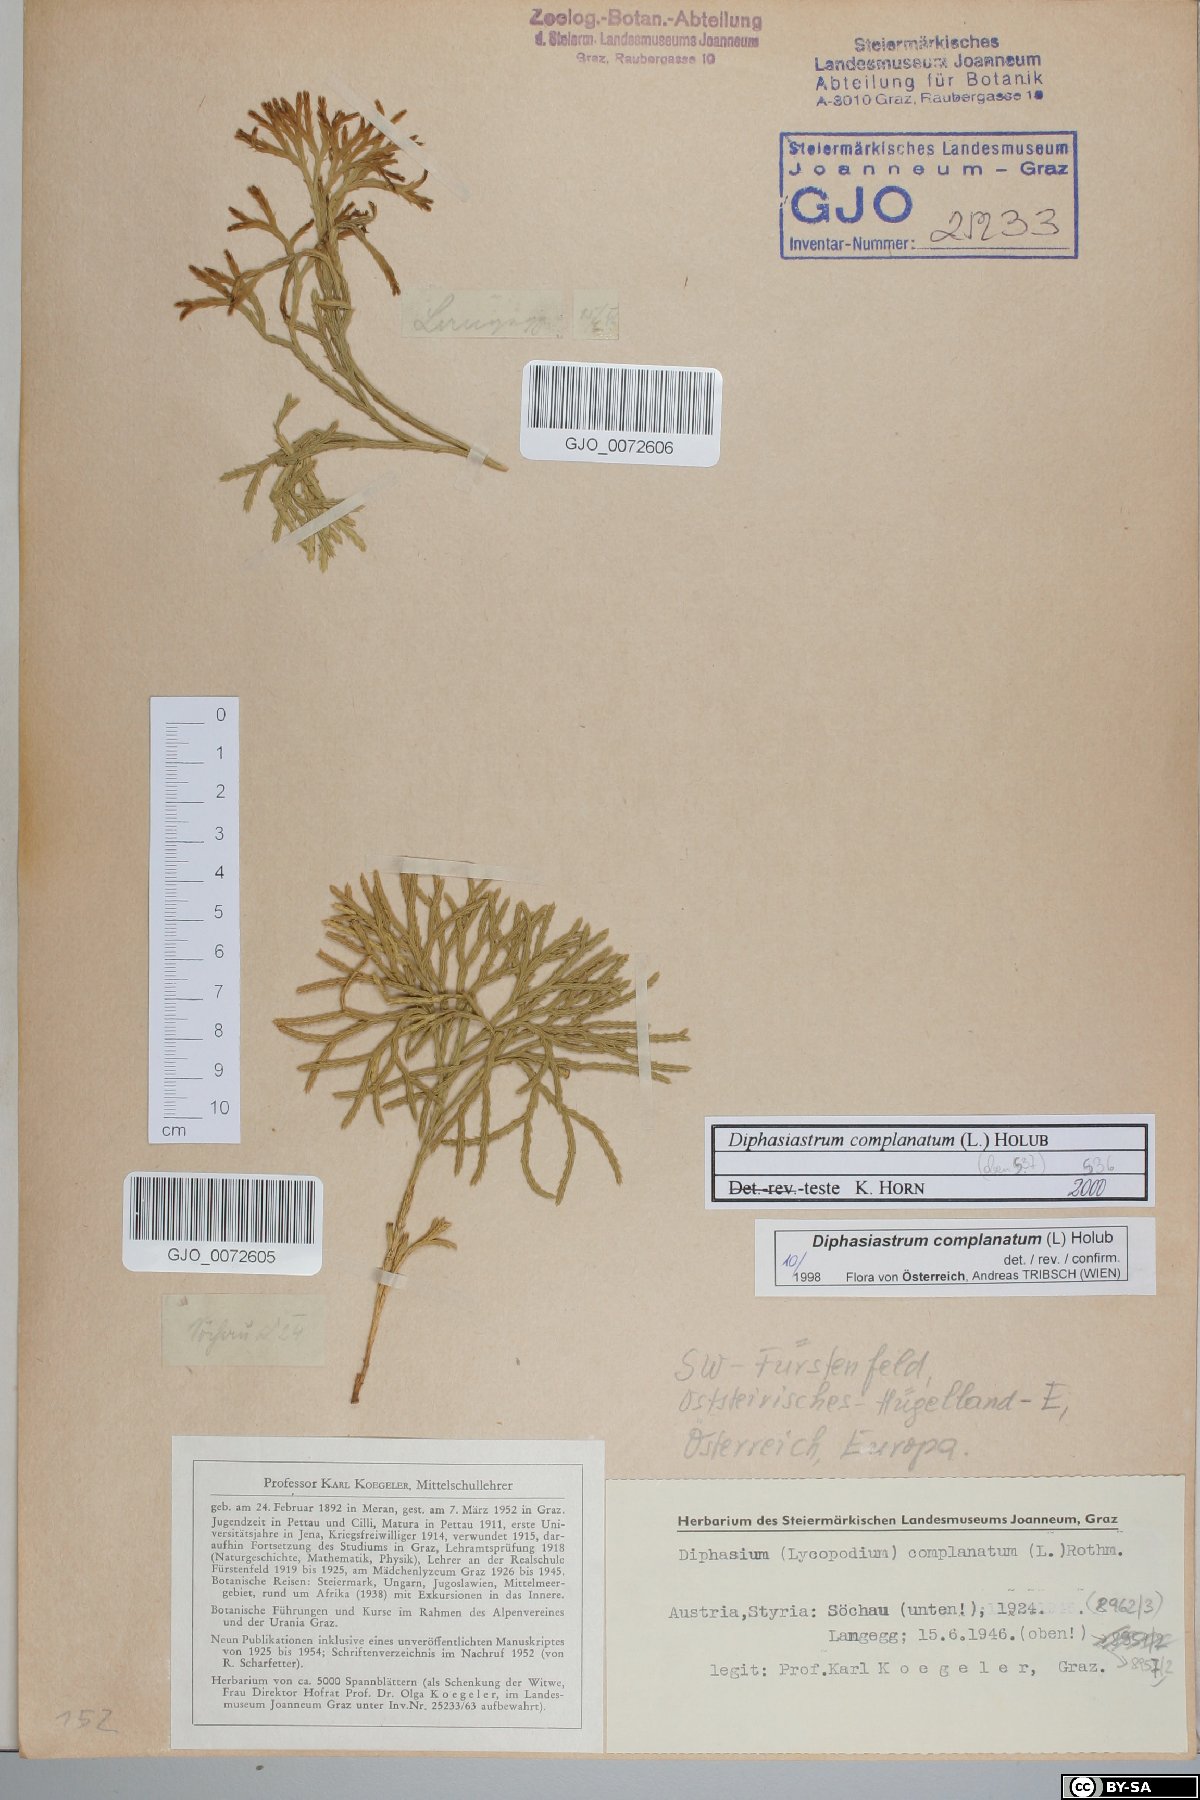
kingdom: Plantae
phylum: Tracheophyta
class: Lycopodiopsida
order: Lycopodiales
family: Lycopodiaceae
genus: Diphasiastrum
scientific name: Diphasiastrum complanatum
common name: Northern running-pine
